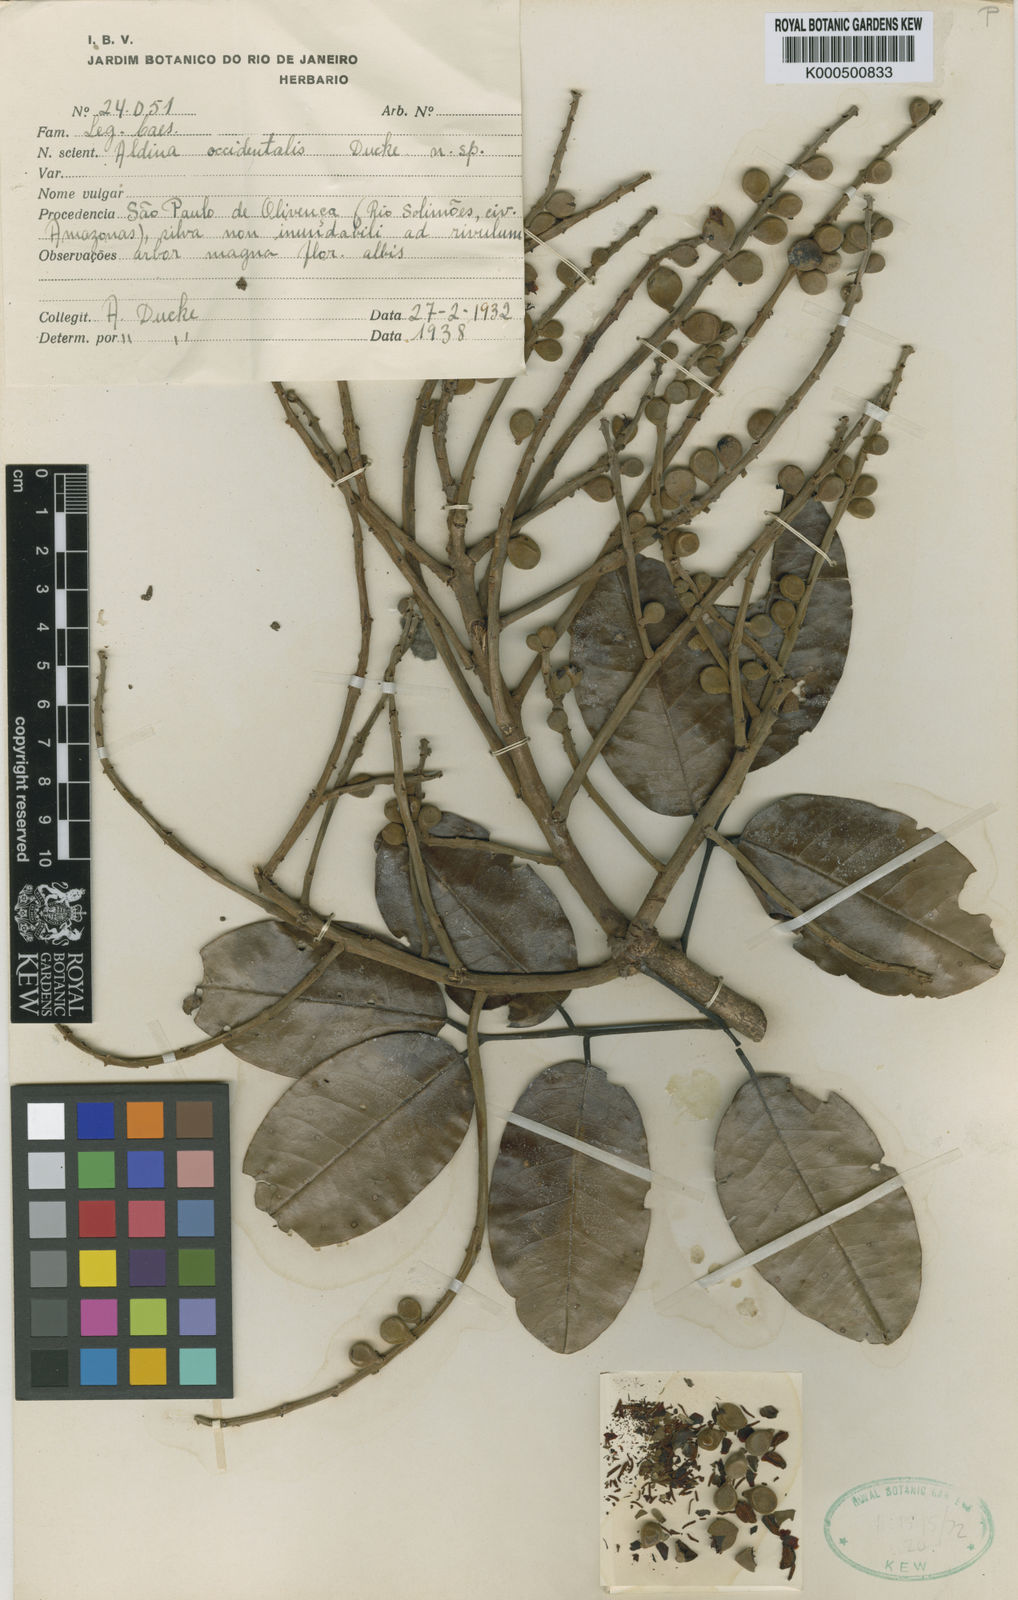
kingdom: Plantae
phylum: Tracheophyta
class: Magnoliopsida
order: Fabales
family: Fabaceae
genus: Aldina
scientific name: Aldina occidentalis
